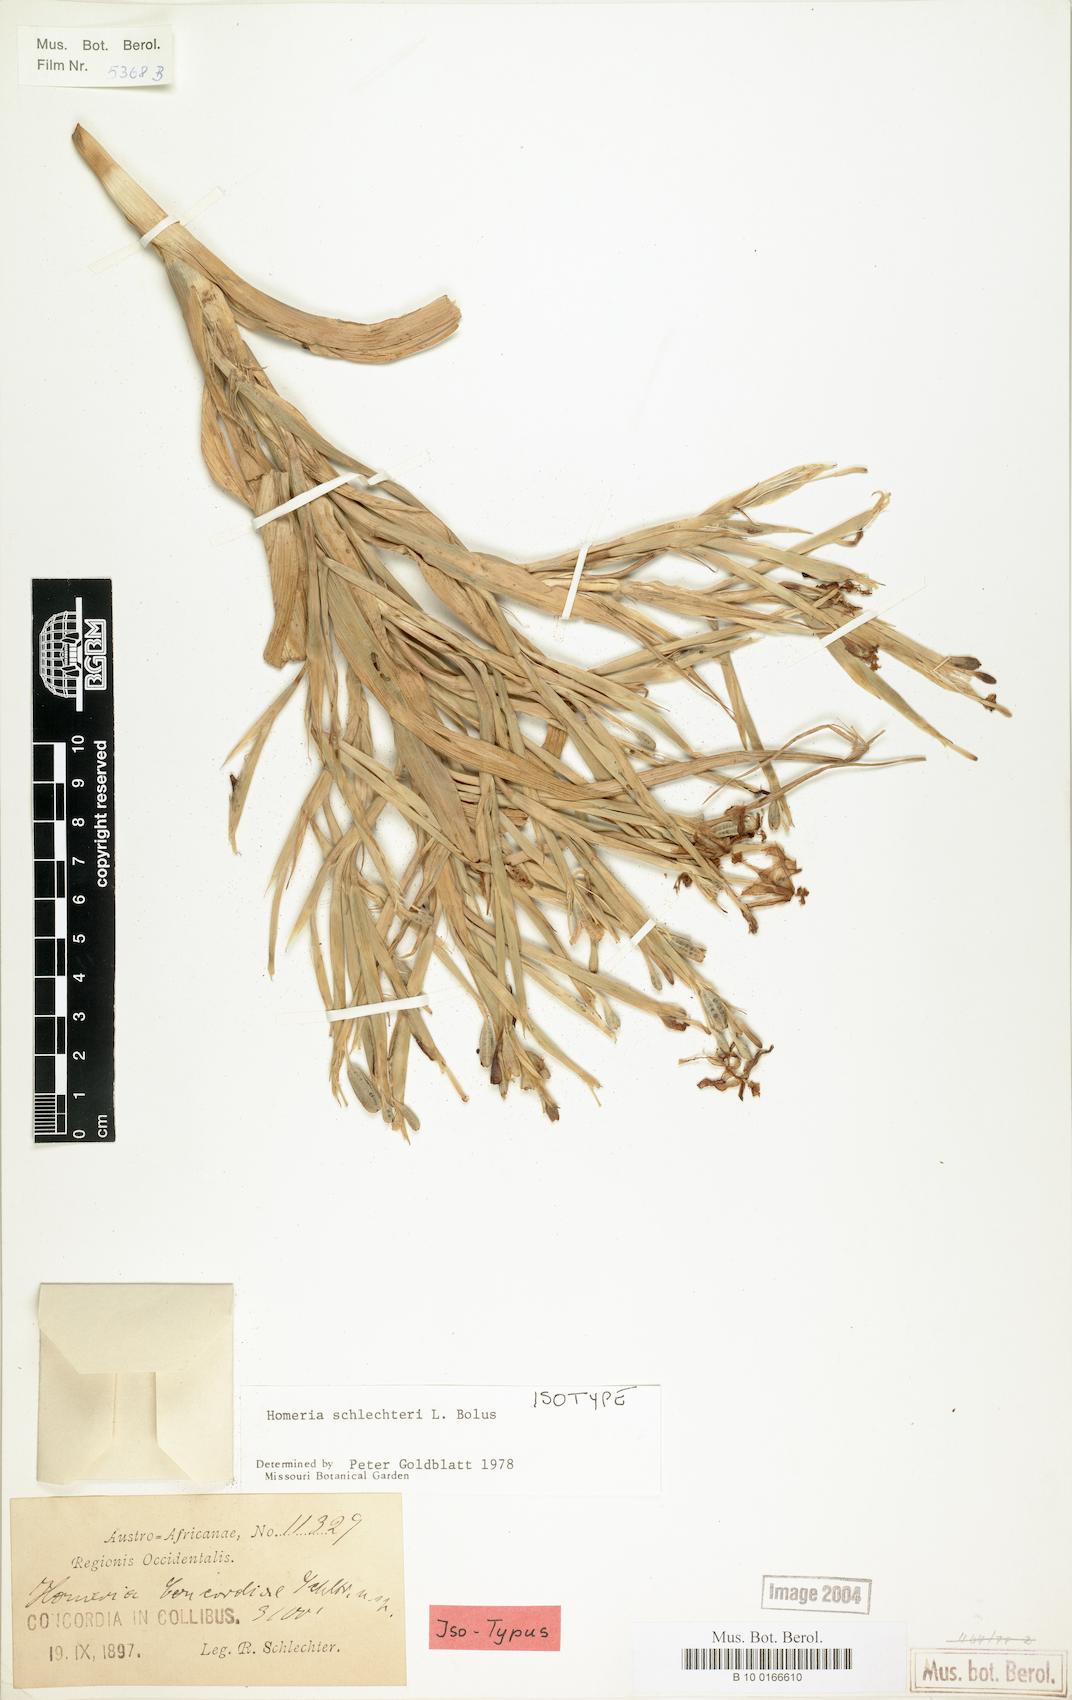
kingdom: Plantae
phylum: Tracheophyta
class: Liliopsida
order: Asparagales
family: Iridaceae
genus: Moraea
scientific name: Moraea schlechteri
